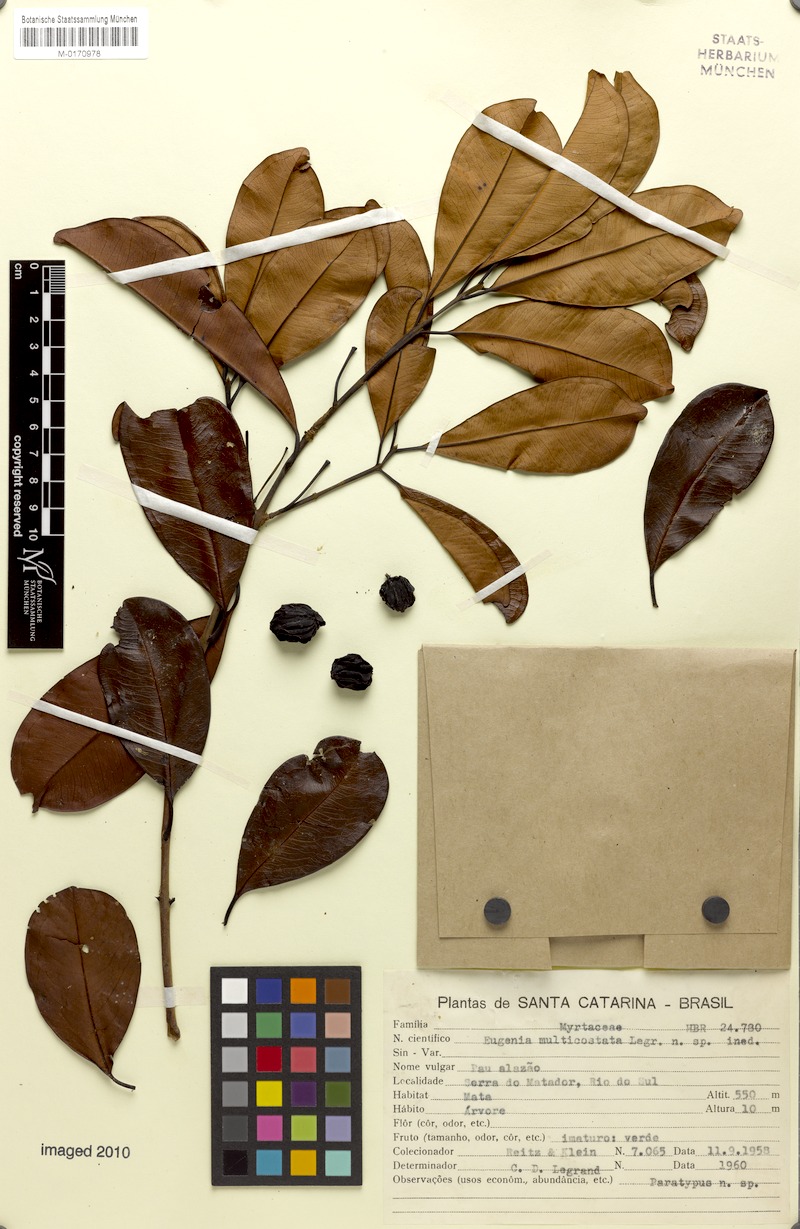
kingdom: Plantae
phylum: Tracheophyta
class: Magnoliopsida
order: Myrtales
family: Myrtaceae
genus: Eugenia
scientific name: Eugenia multicostata
